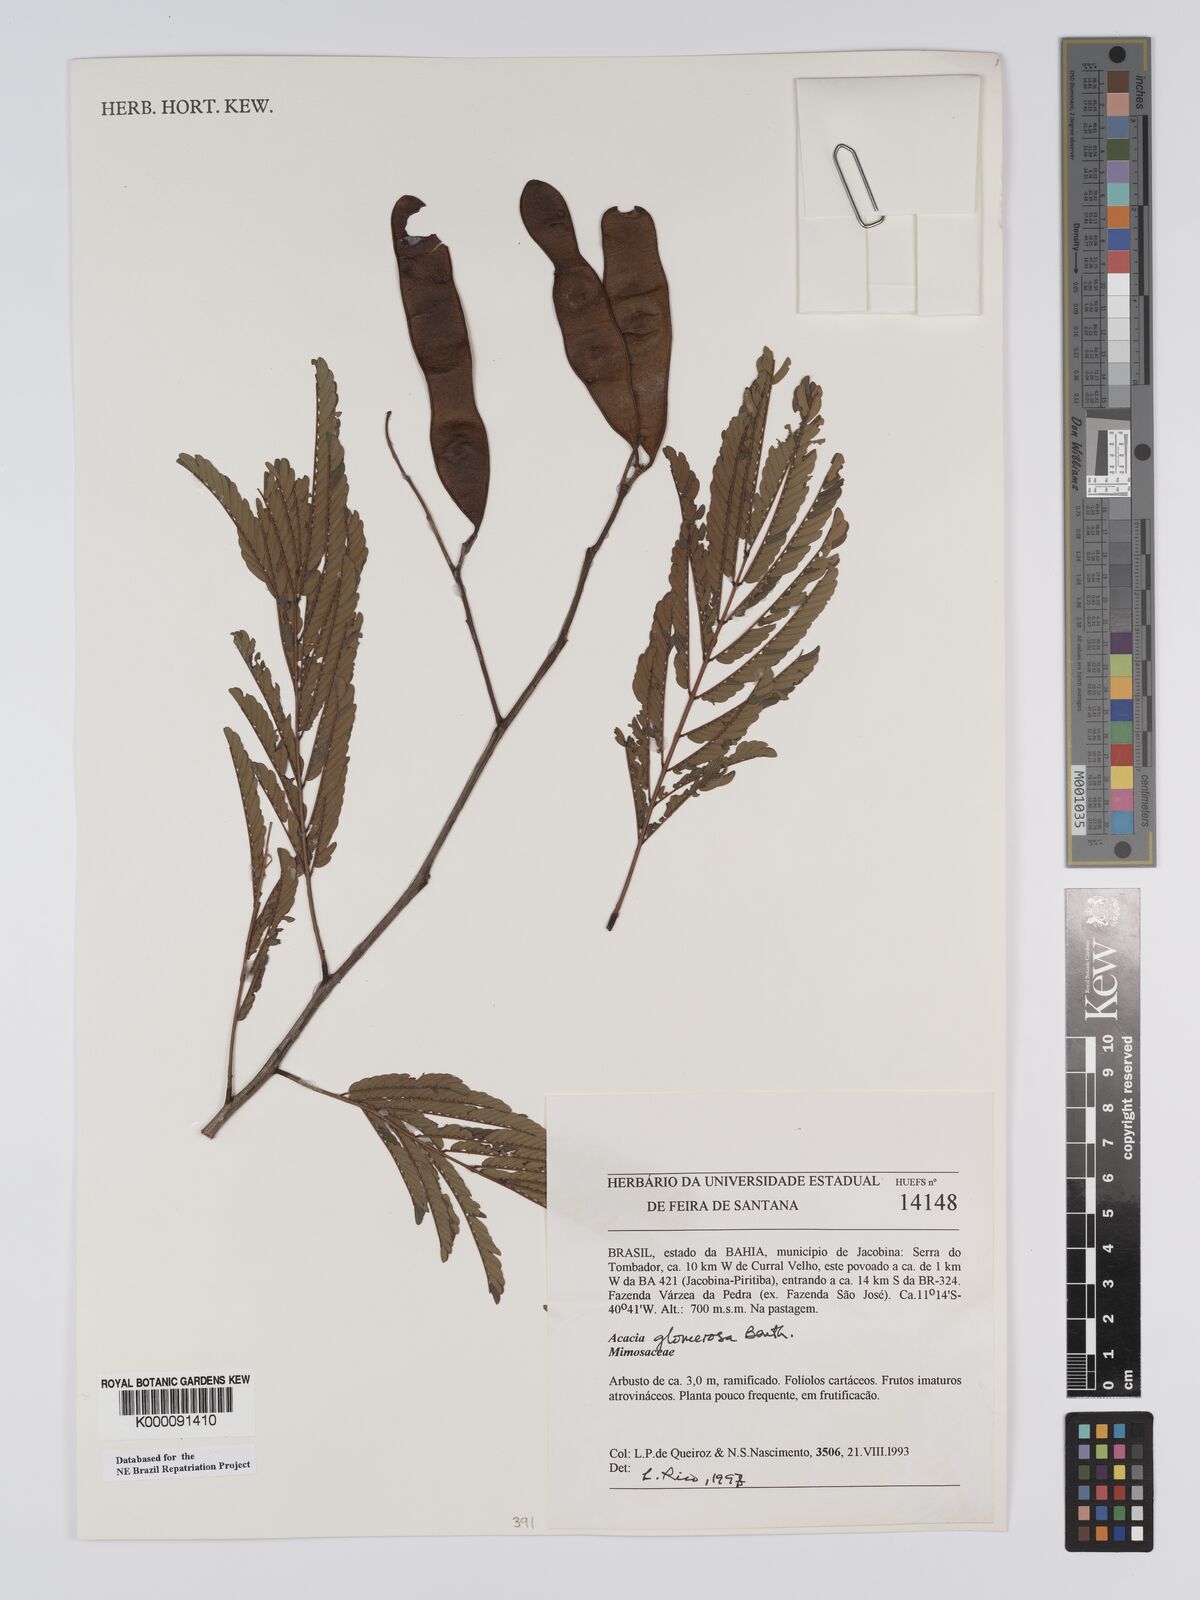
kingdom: Plantae
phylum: Tracheophyta
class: Magnoliopsida
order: Fabales
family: Fabaceae
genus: Senegalia
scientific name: Senegalia polyphylla
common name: White-tamarind
